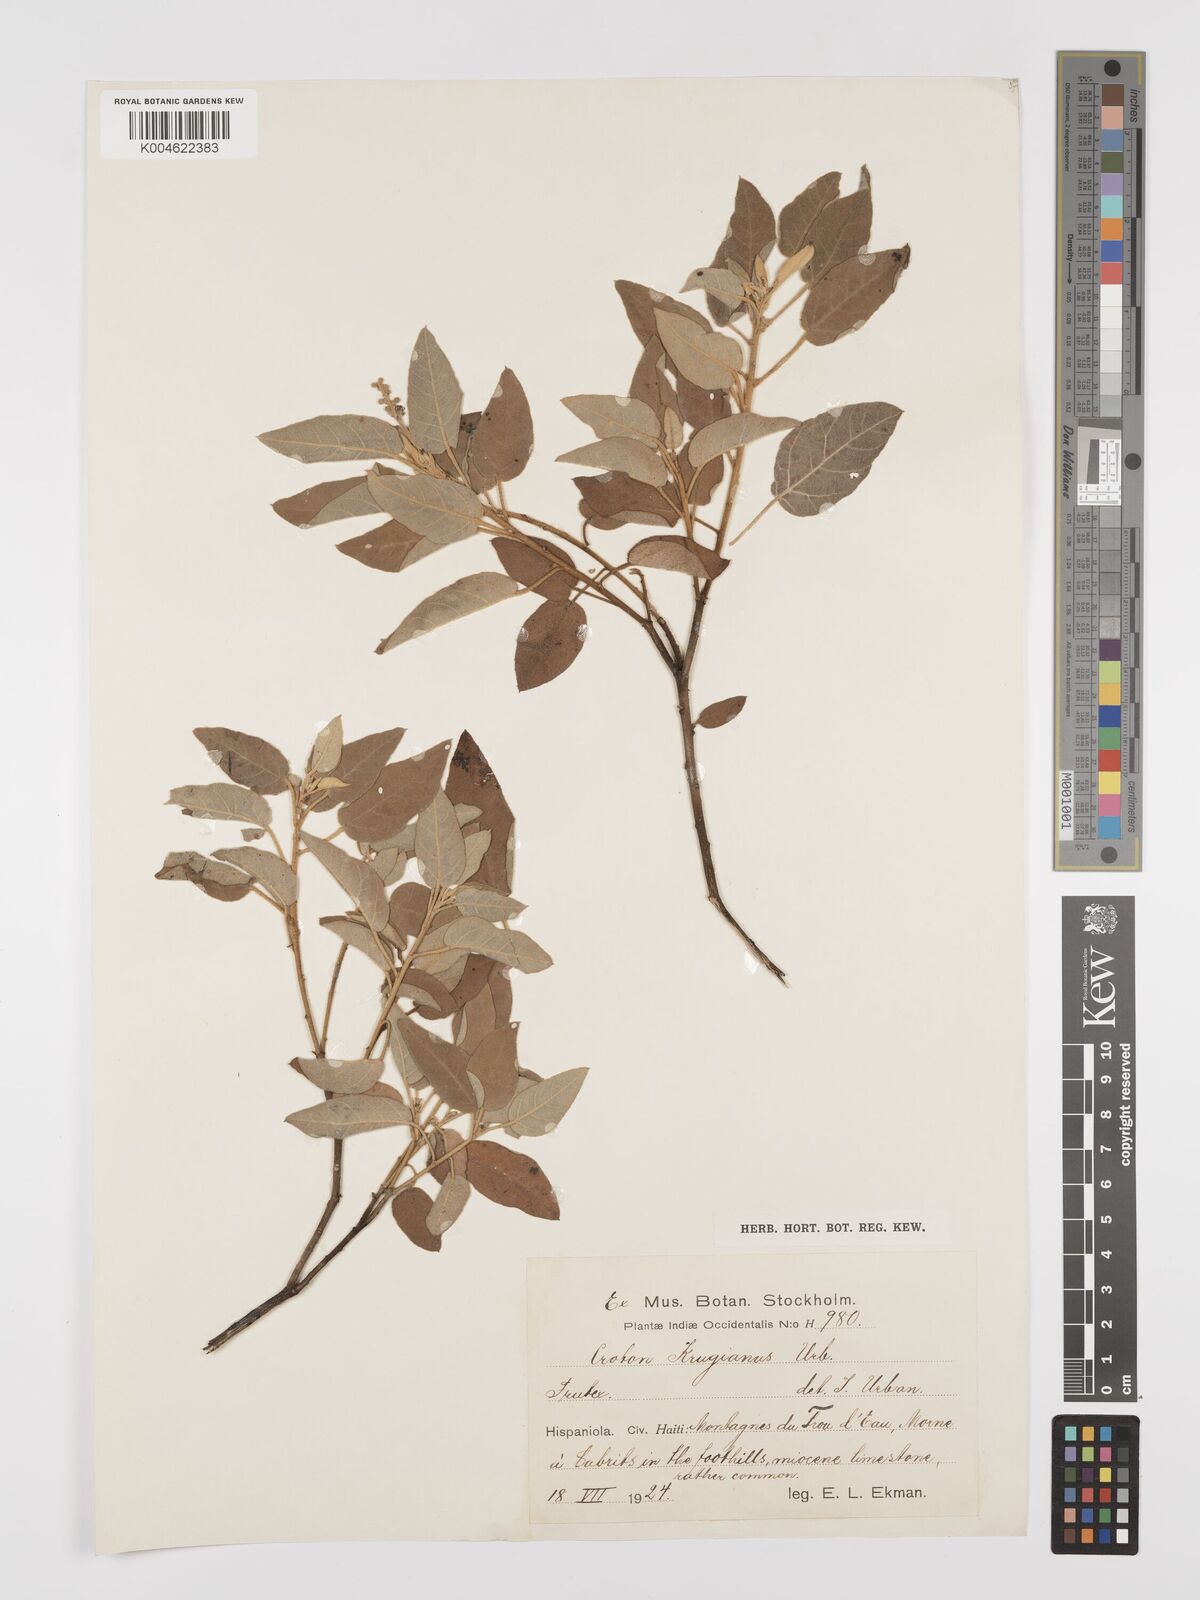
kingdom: Plantae
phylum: Tracheophyta
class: Magnoliopsida
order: Malpighiales
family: Euphorbiaceae
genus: Croton
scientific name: Croton polytomus
